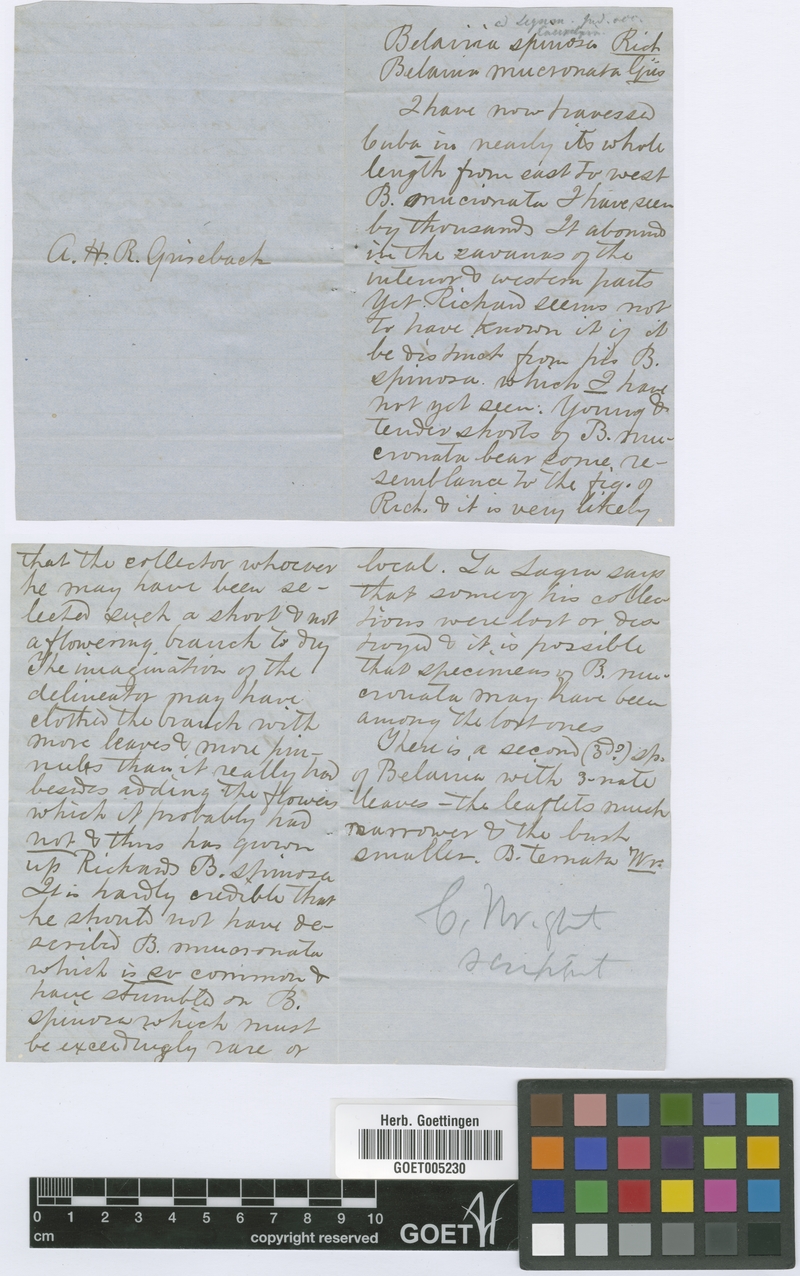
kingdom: Plantae
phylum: Tracheophyta
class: Magnoliopsida
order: Fabales
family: Fabaceae
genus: Pictetia
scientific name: Pictetia mucronata
